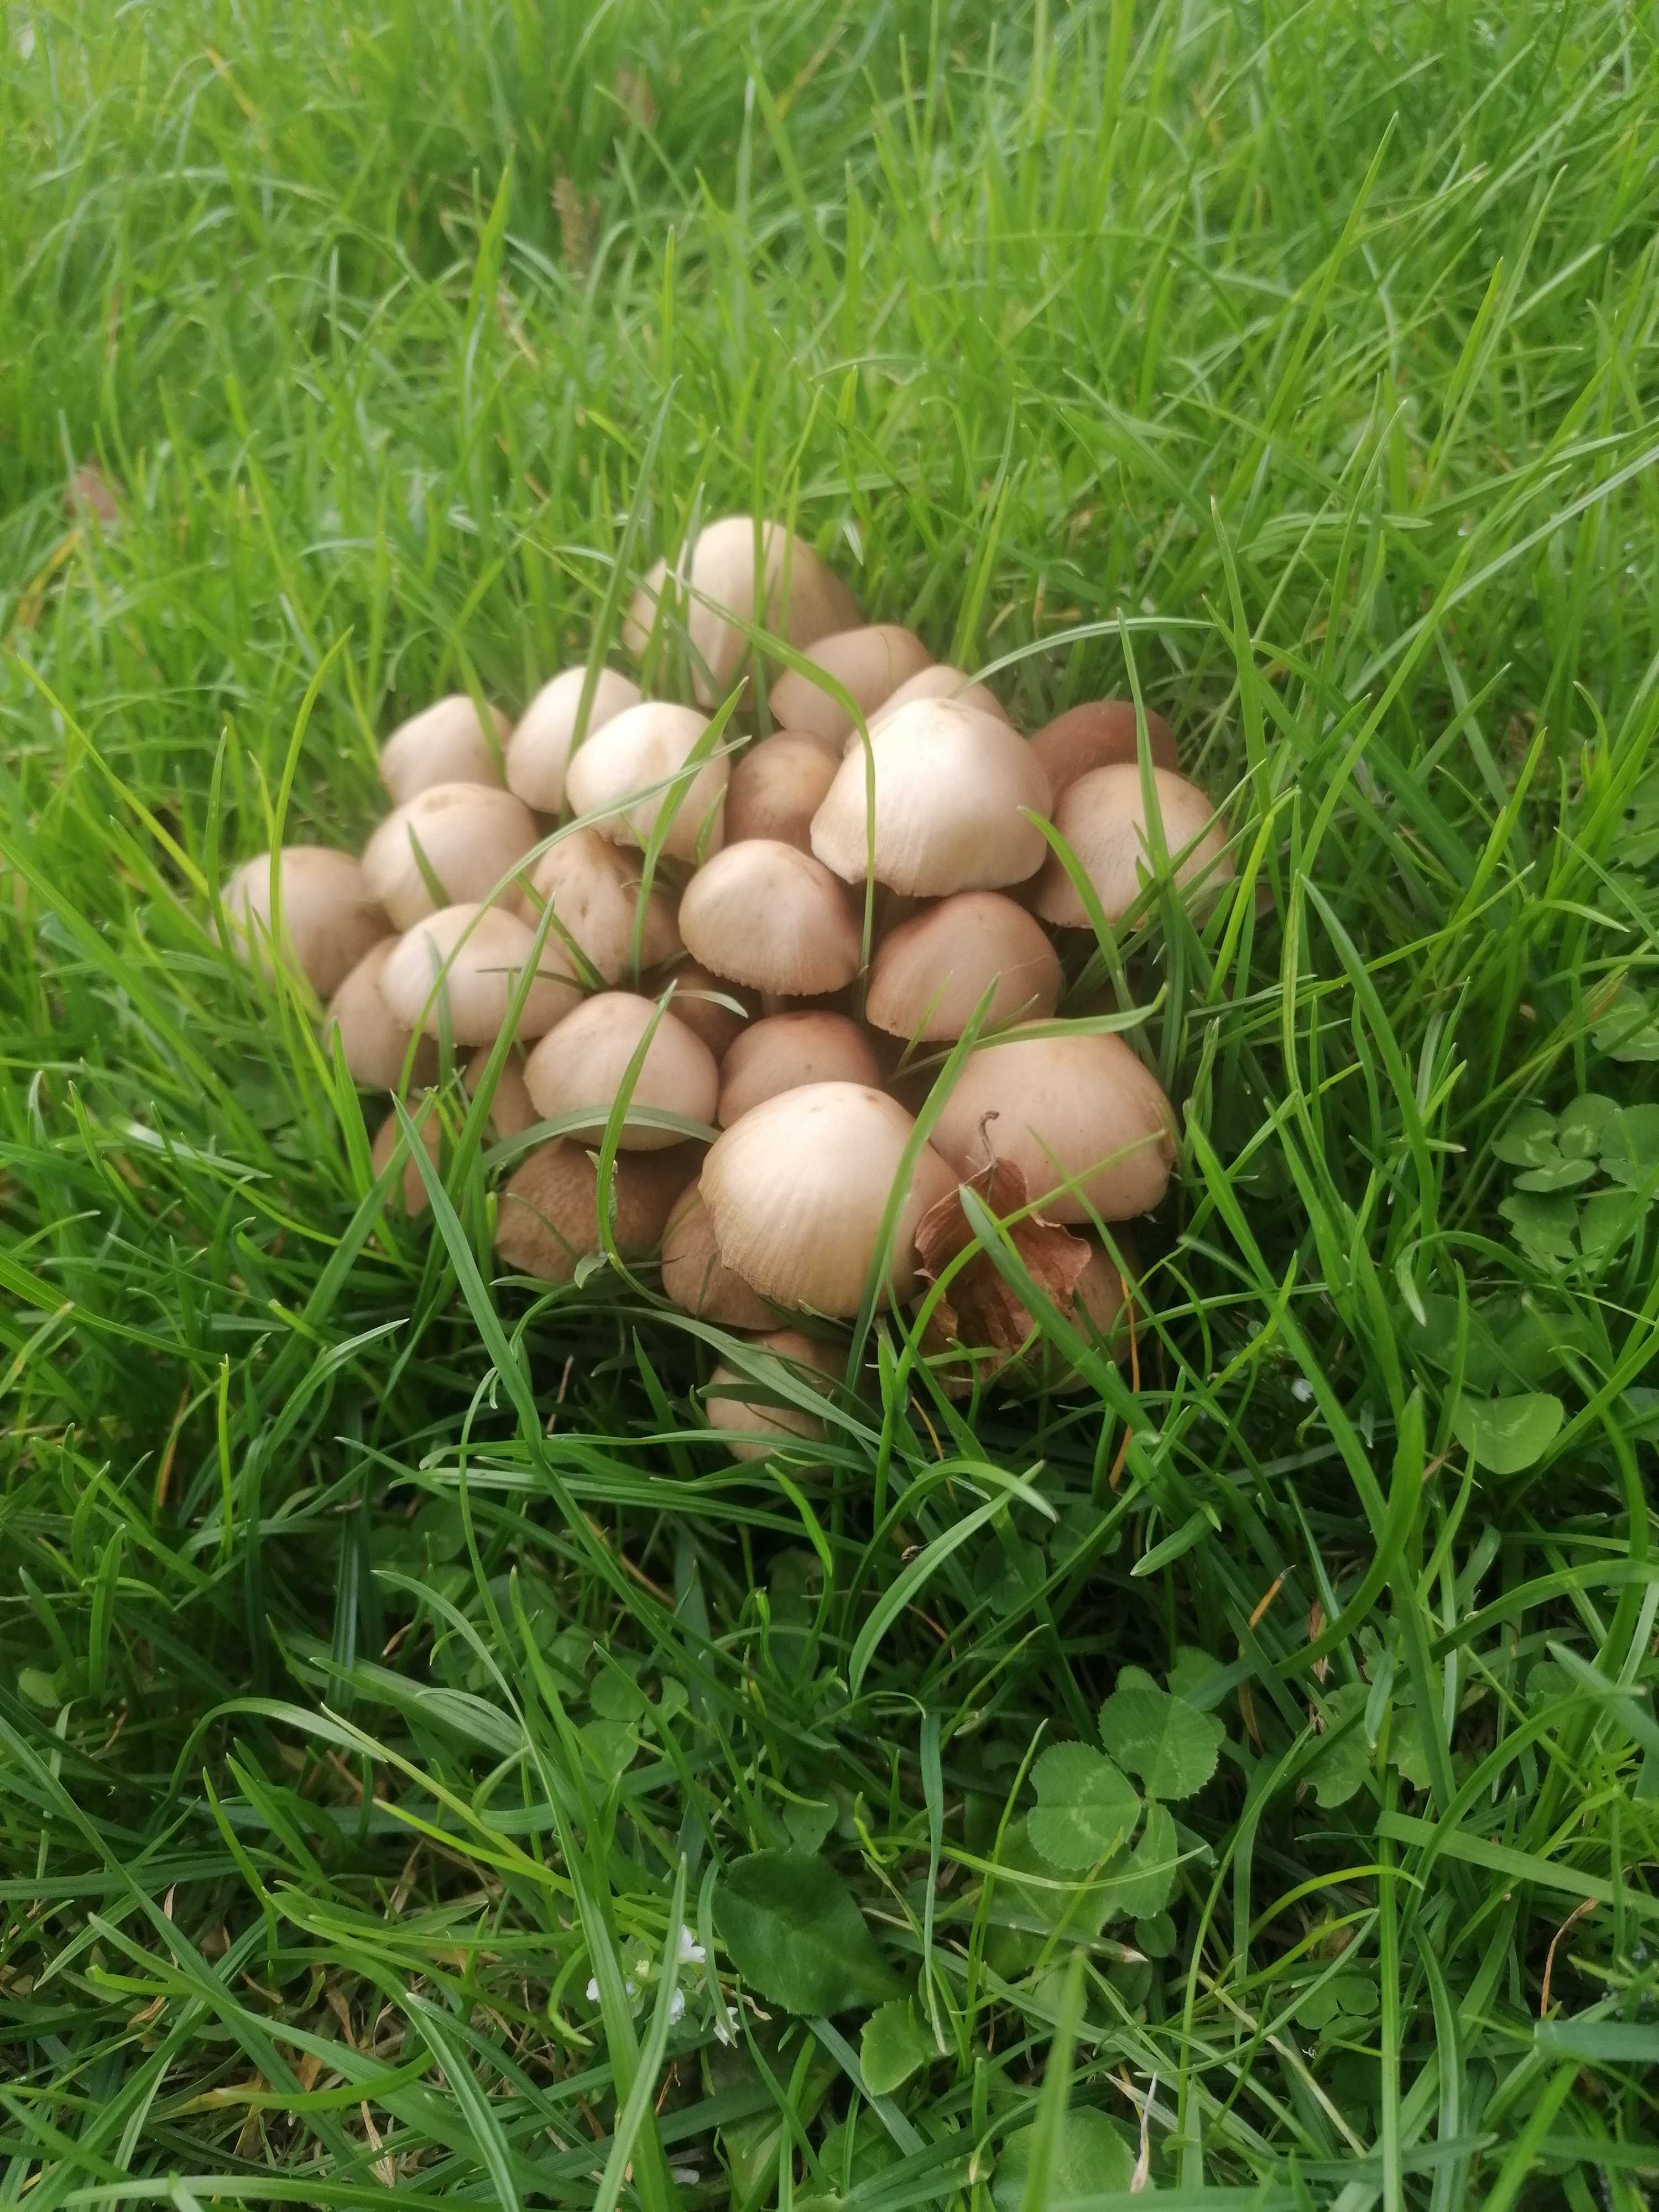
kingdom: Fungi
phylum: Basidiomycota
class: Agaricomycetes
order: Agaricales
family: Psathyrellaceae
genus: Britzelmayria
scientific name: Britzelmayria multipedata
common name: knippe-mørkhat
